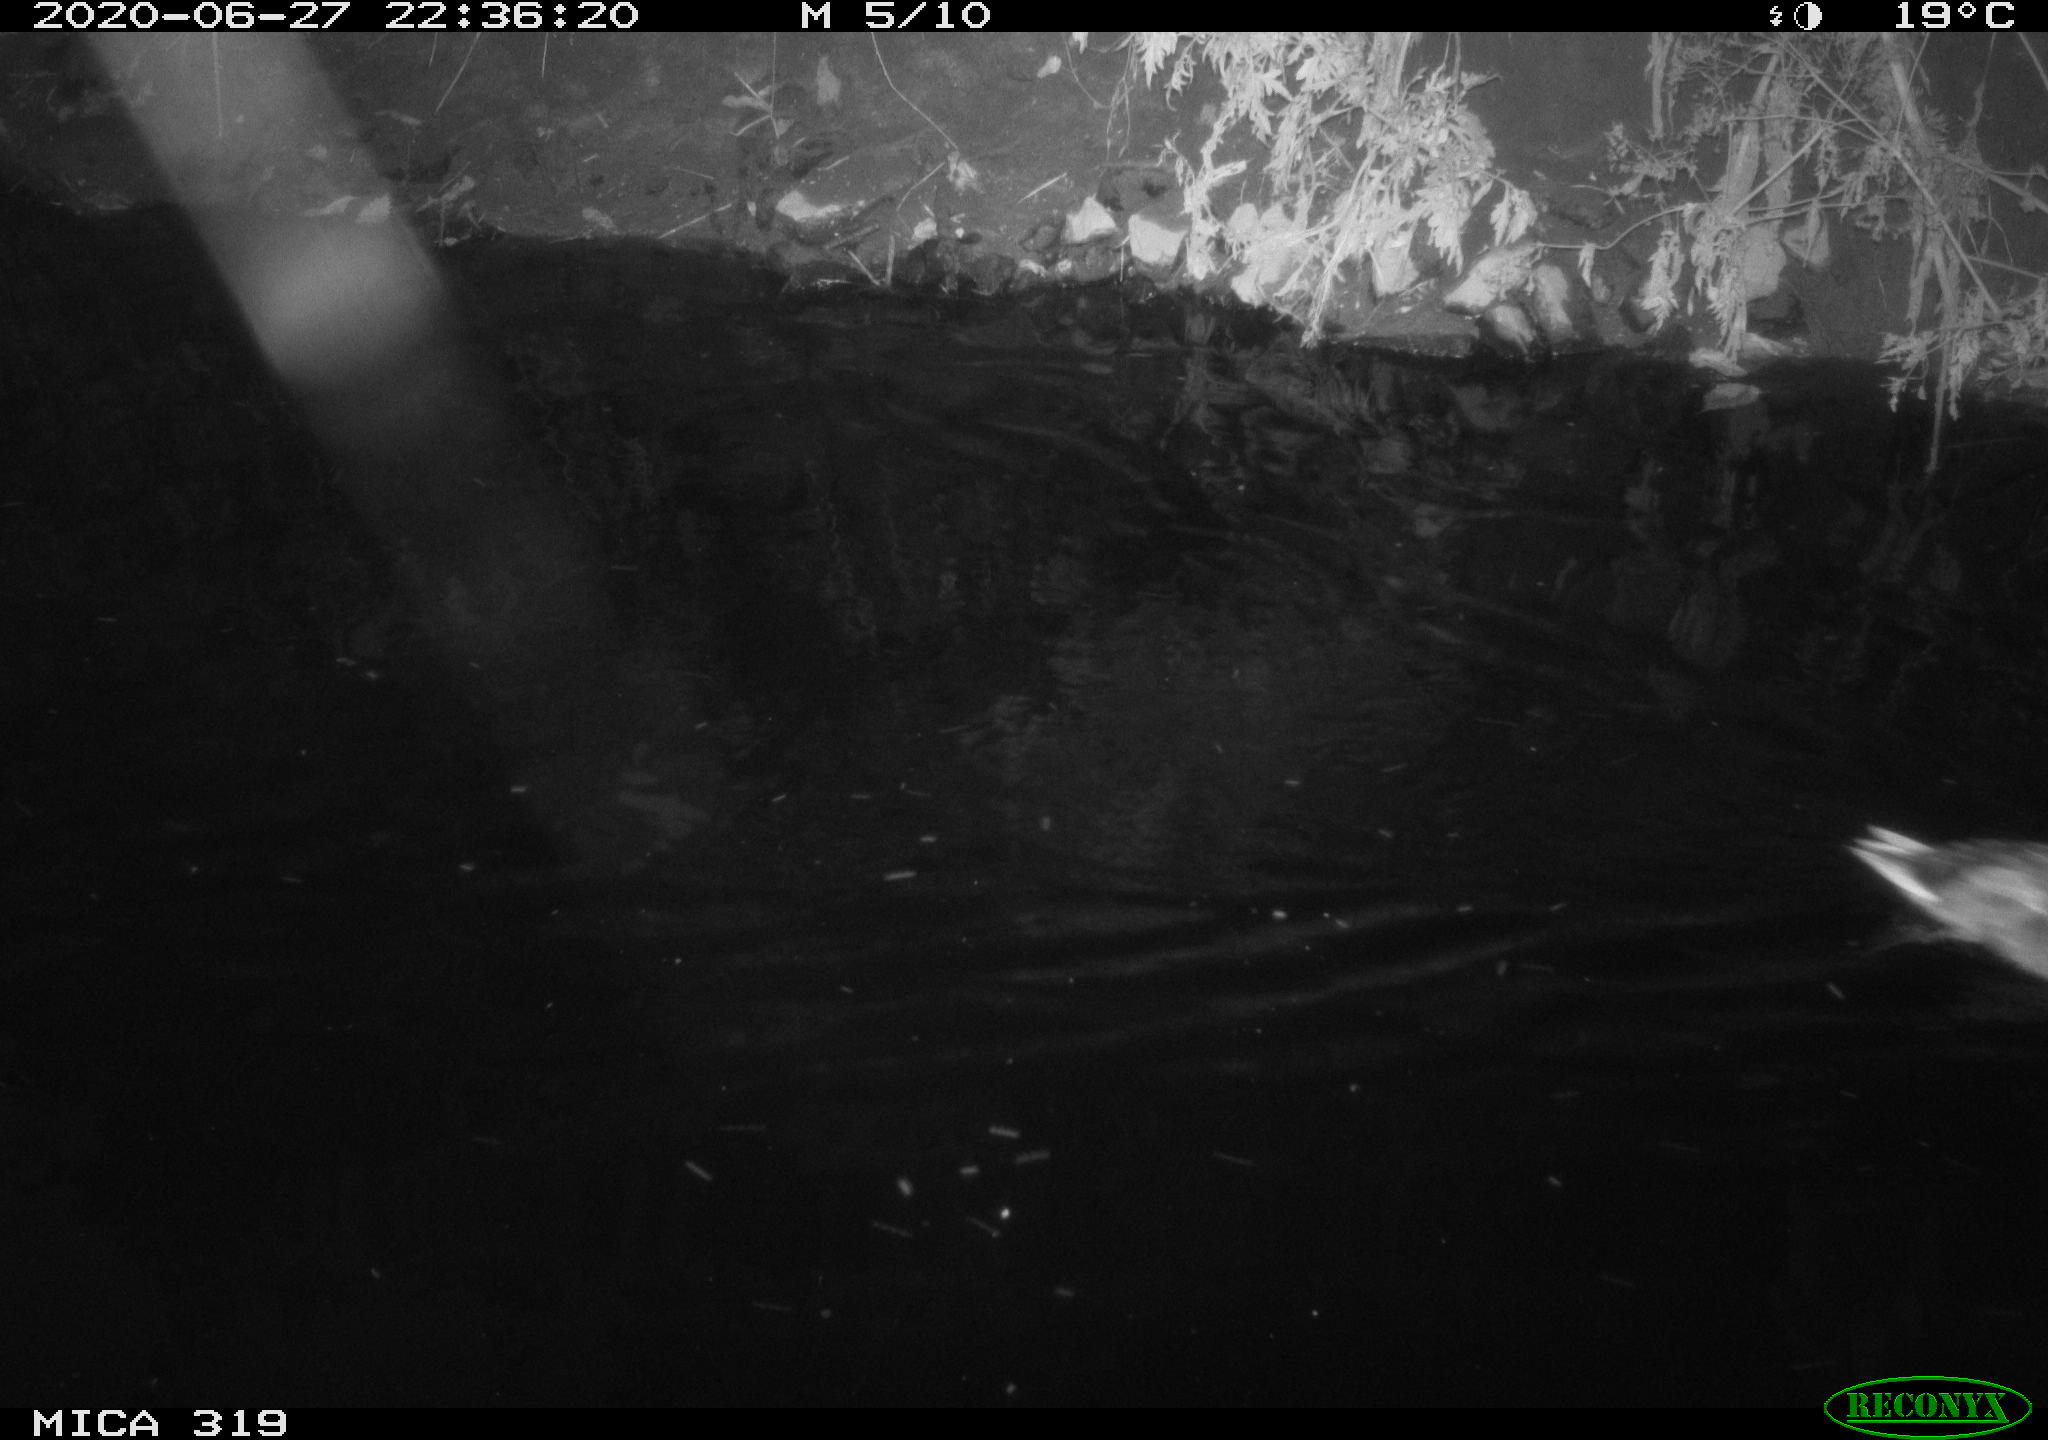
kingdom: Animalia
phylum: Chordata
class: Aves
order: Anseriformes
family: Anatidae
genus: Anas
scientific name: Anas platyrhynchos
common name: Mallard
